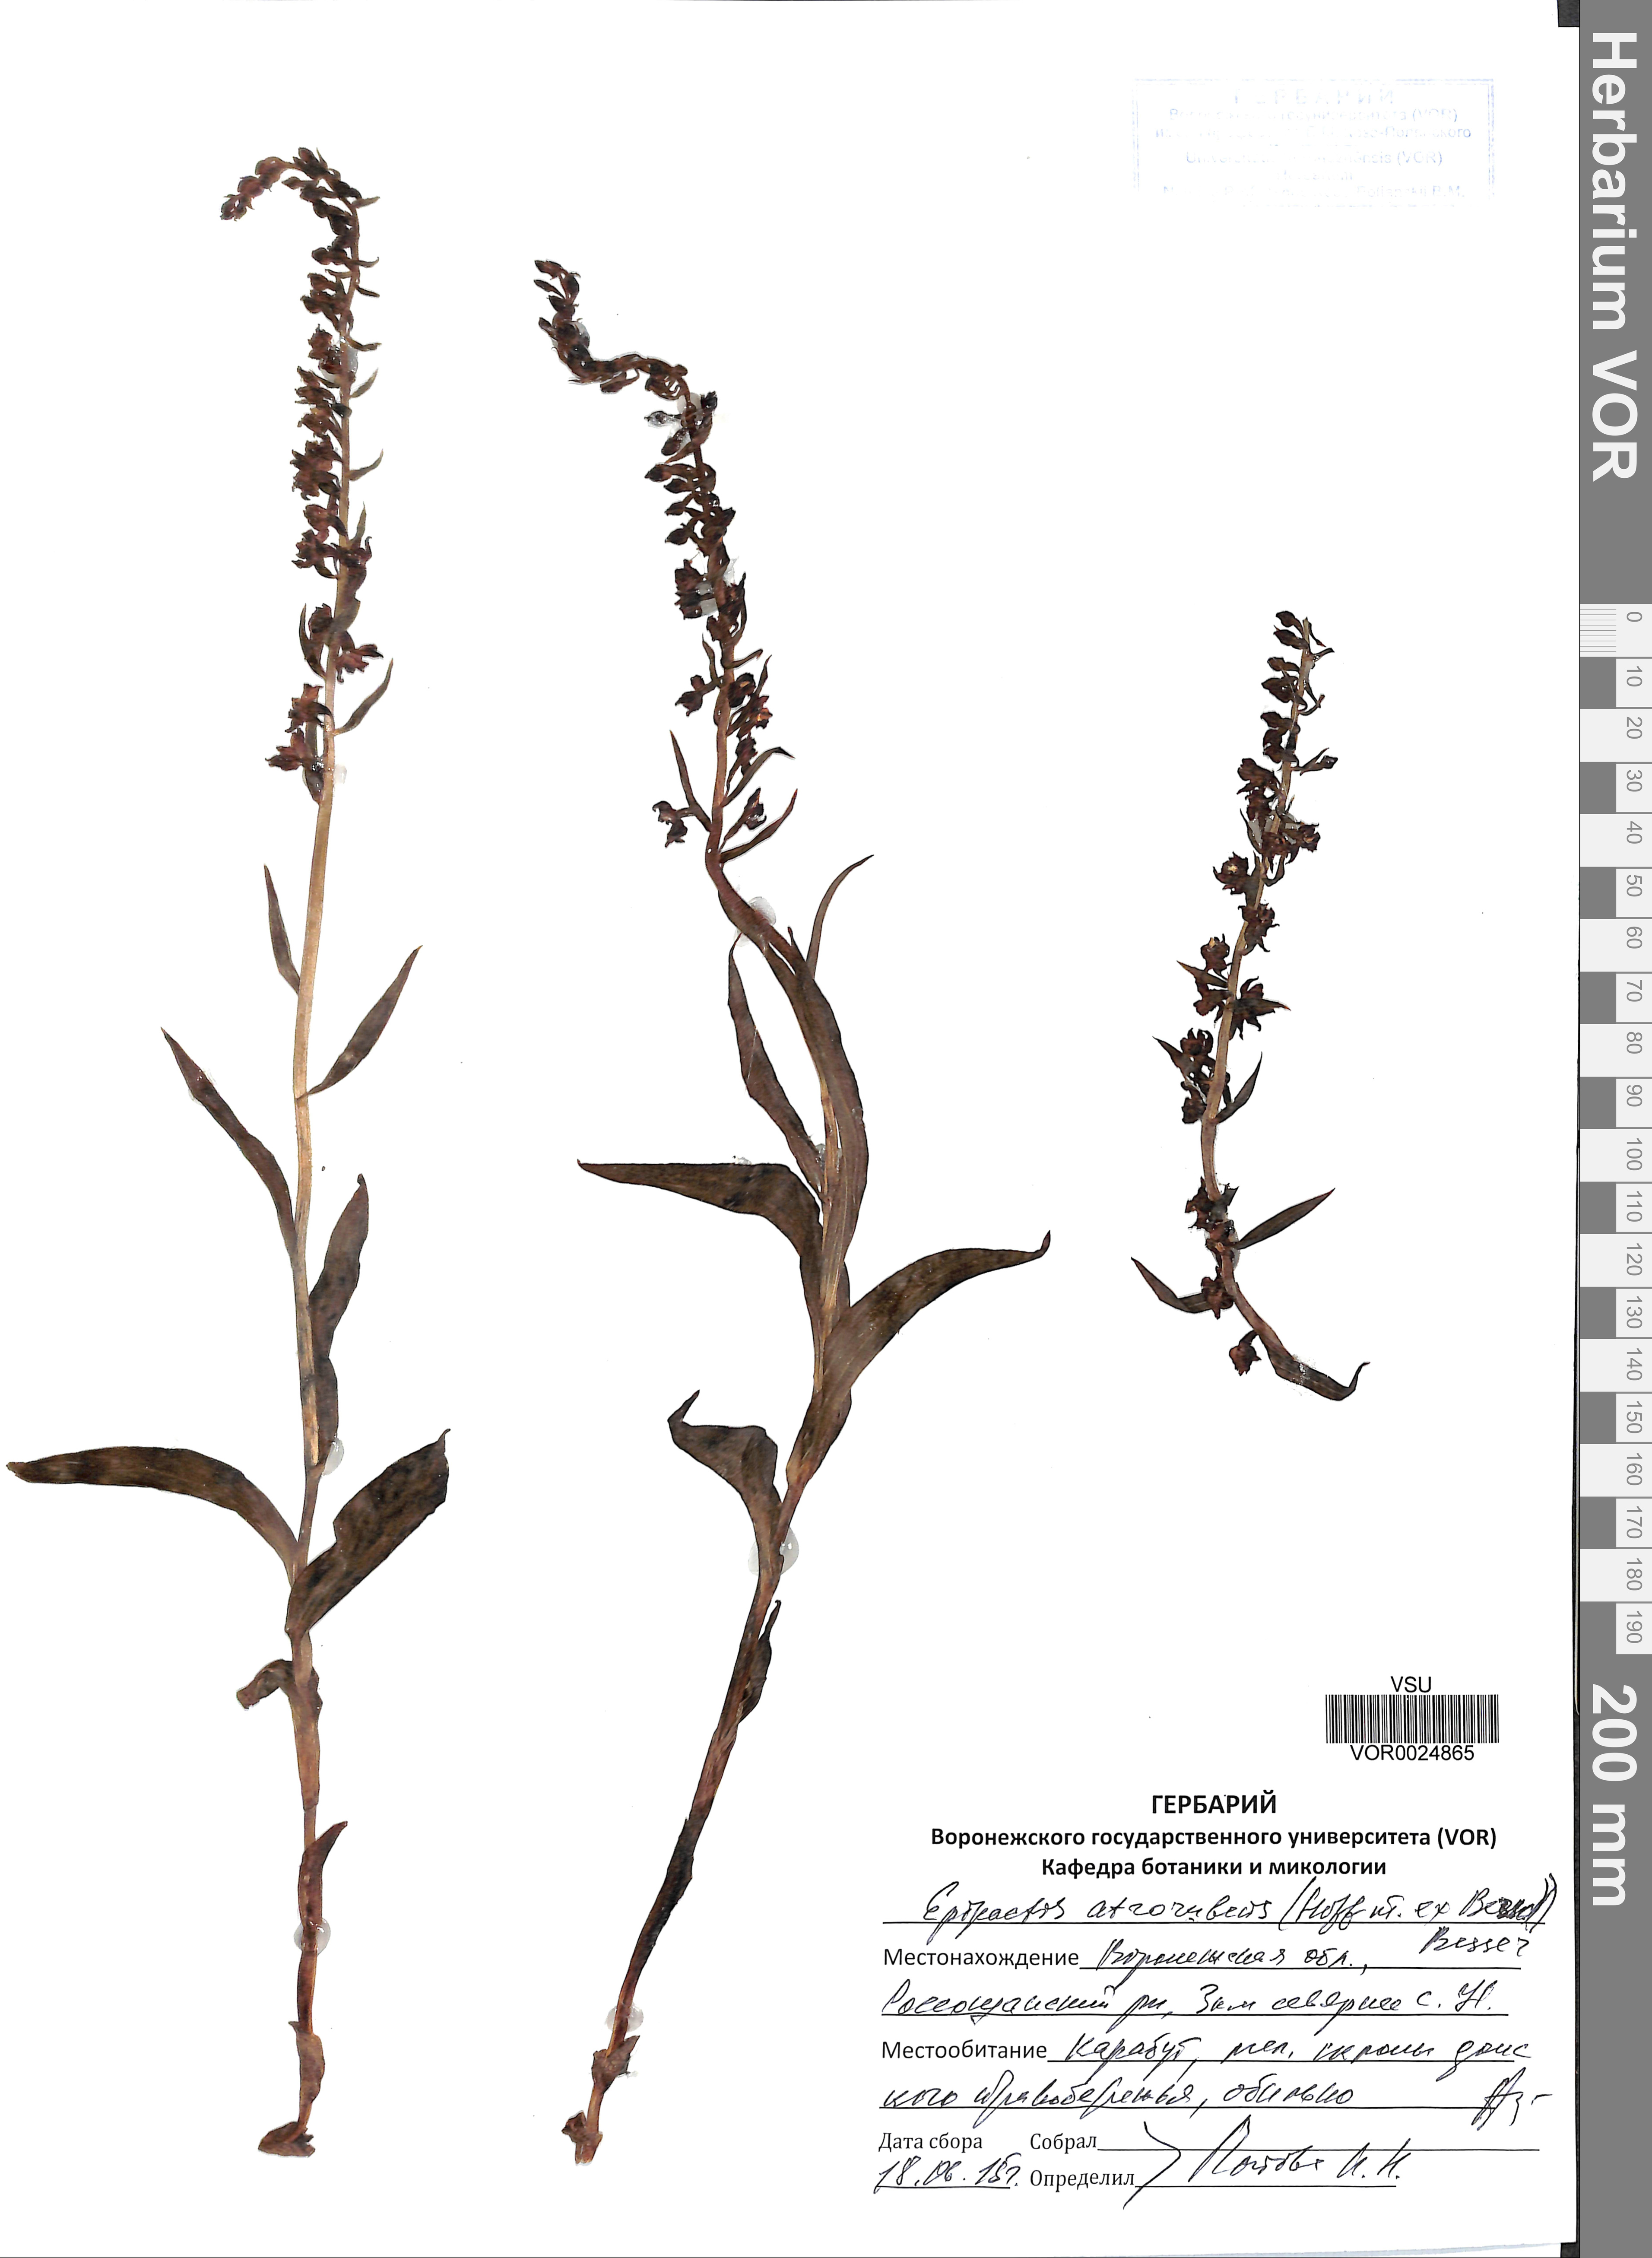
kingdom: Plantae
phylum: Tracheophyta
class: Liliopsida
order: Asparagales
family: Orchidaceae
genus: Epipactis
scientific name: Epipactis atrorubens
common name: Dark-red helleborine
